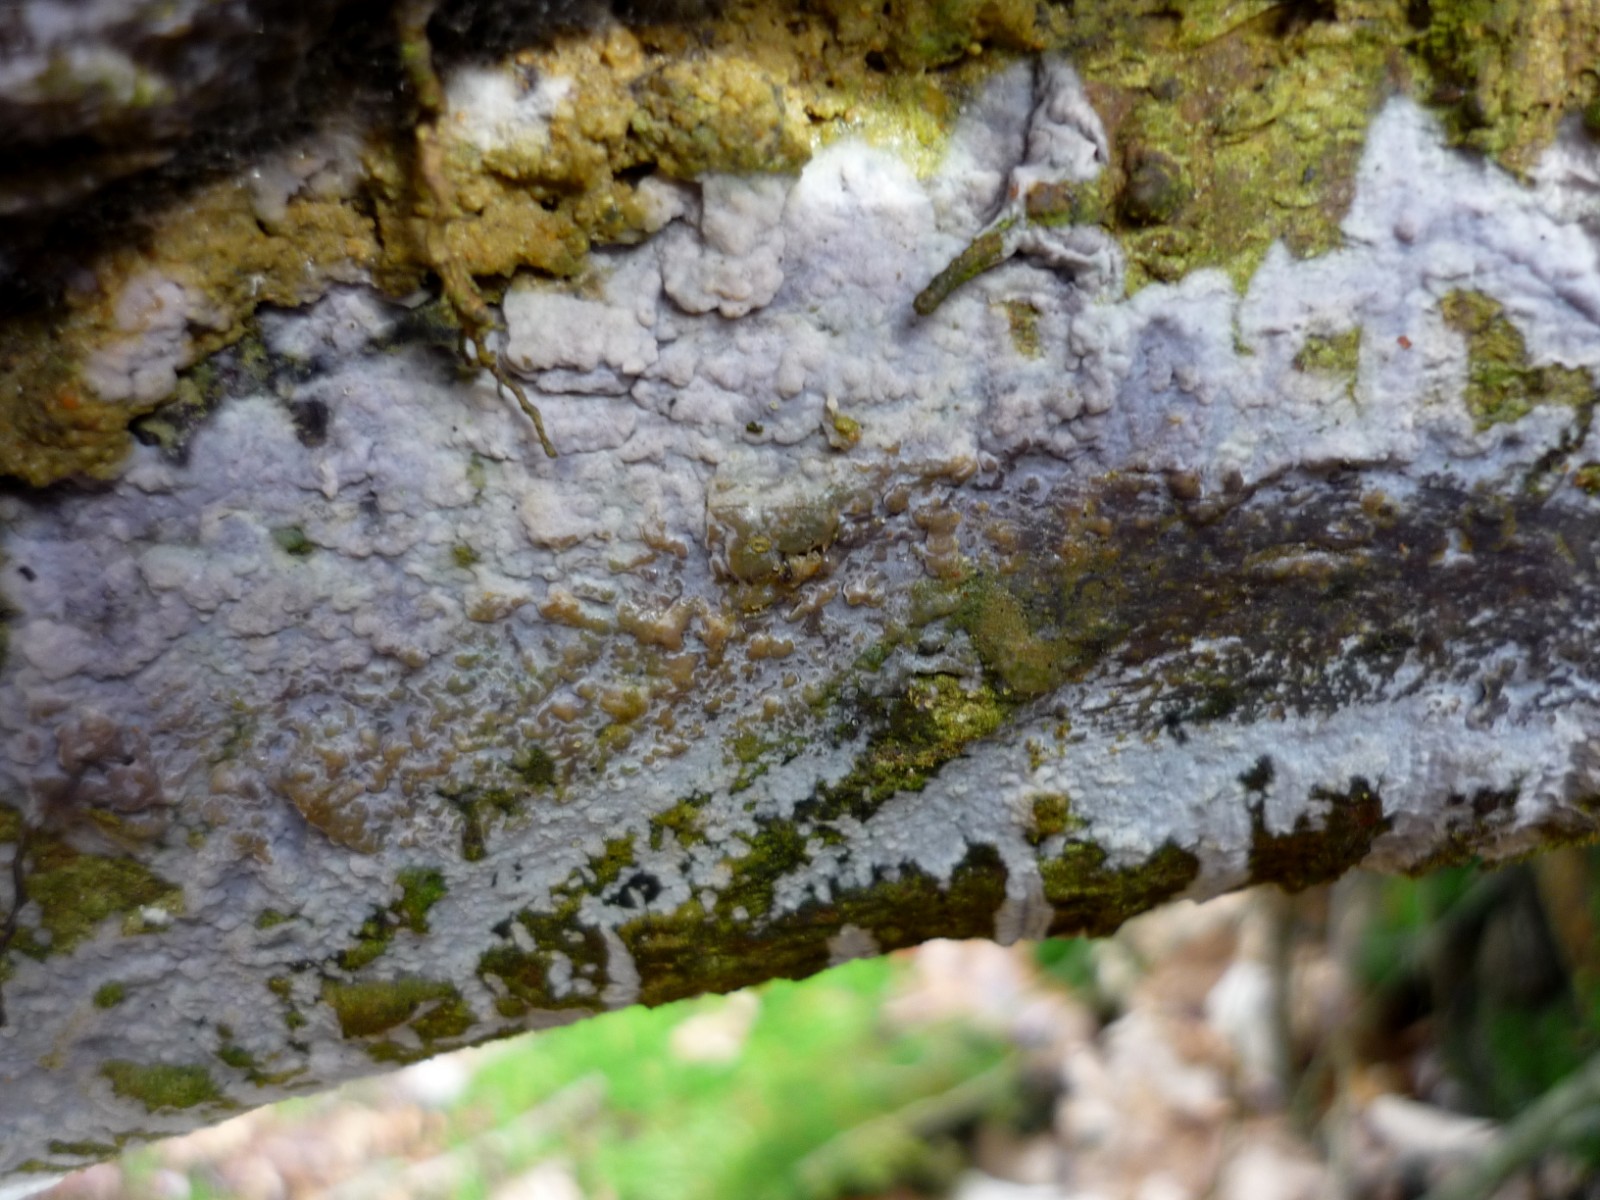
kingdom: Fungi
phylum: Basidiomycota
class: Agaricomycetes
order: Sebacinales
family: Sebacinaceae
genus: Sebacina
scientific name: Sebacina grisea
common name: blågrå bævrehinde
